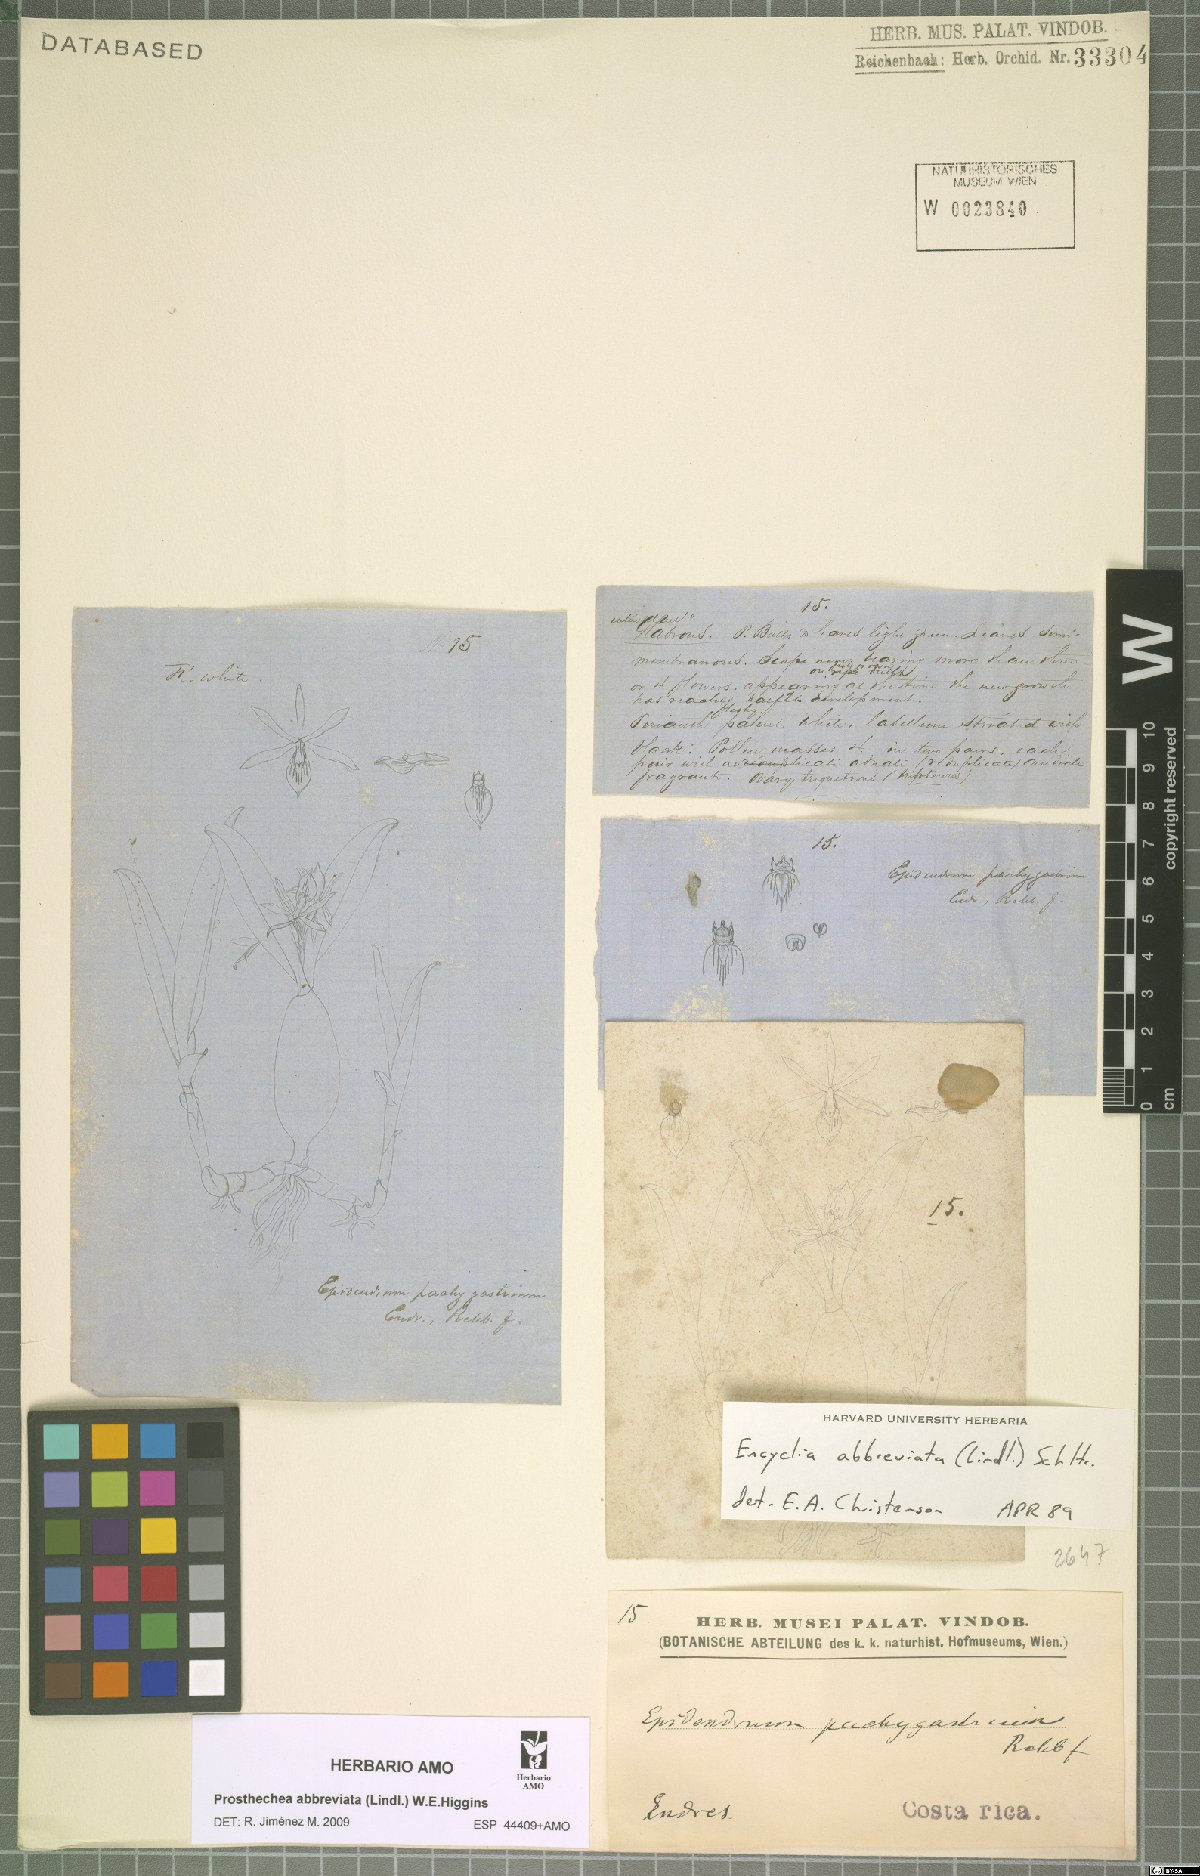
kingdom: Plantae
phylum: Tracheophyta
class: Liliopsida
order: Asparagales
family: Orchidaceae
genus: Prosthechea
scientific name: Prosthechea abbreviata
